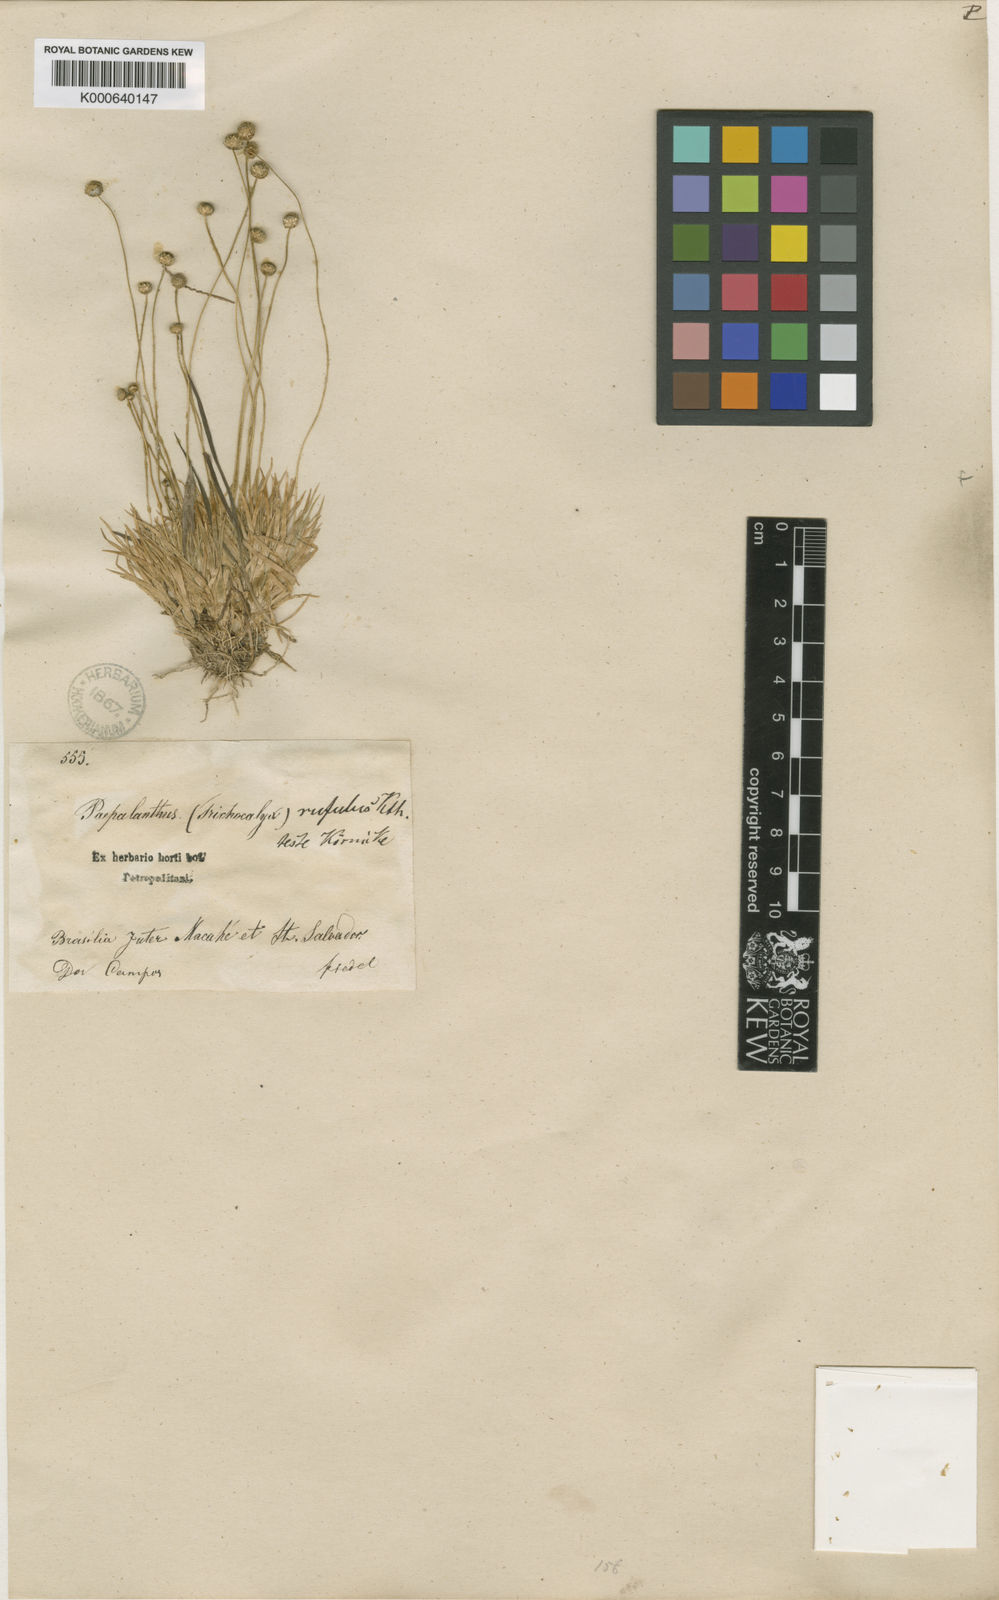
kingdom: Plantae
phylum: Tracheophyta
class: Liliopsida
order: Poales
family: Eriocaulaceae
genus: Leiothrix
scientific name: Leiothrix
